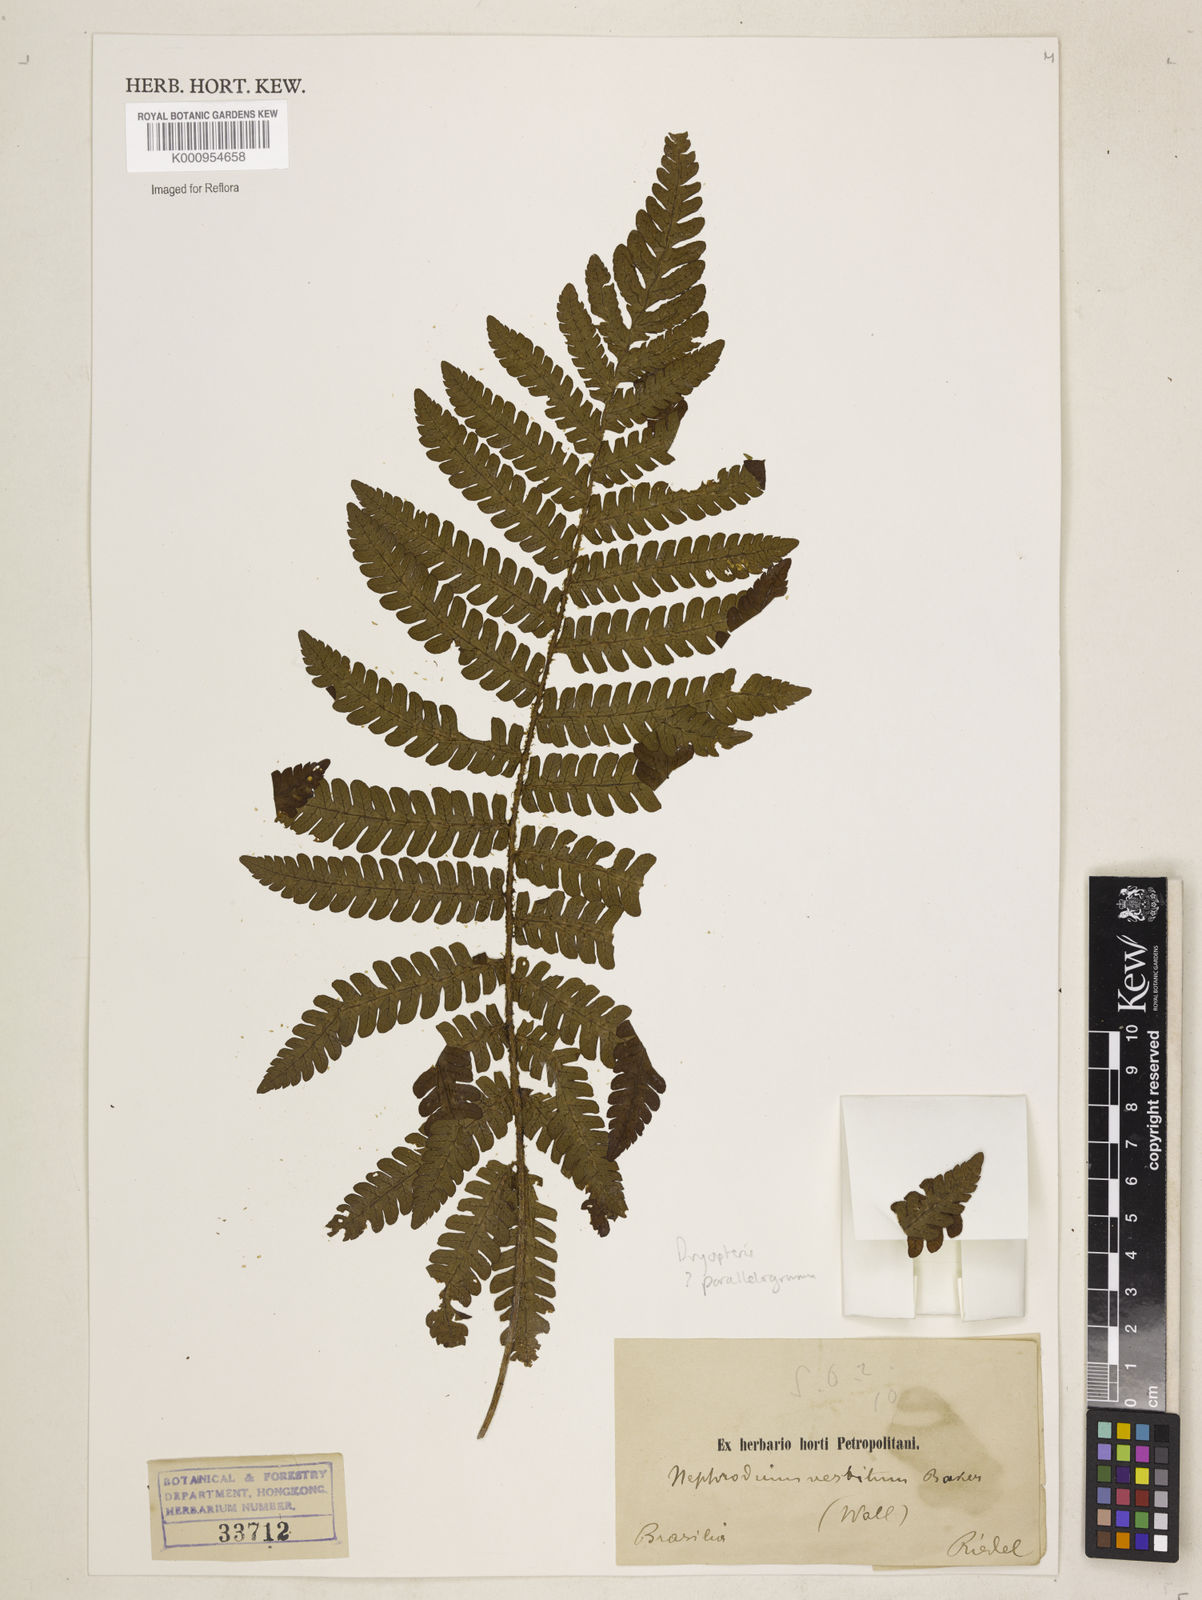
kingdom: Plantae
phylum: Tracheophyta
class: Polypodiopsida
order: Polypodiales
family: Dryopteridaceae
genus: Dryopteris
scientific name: Dryopteris
